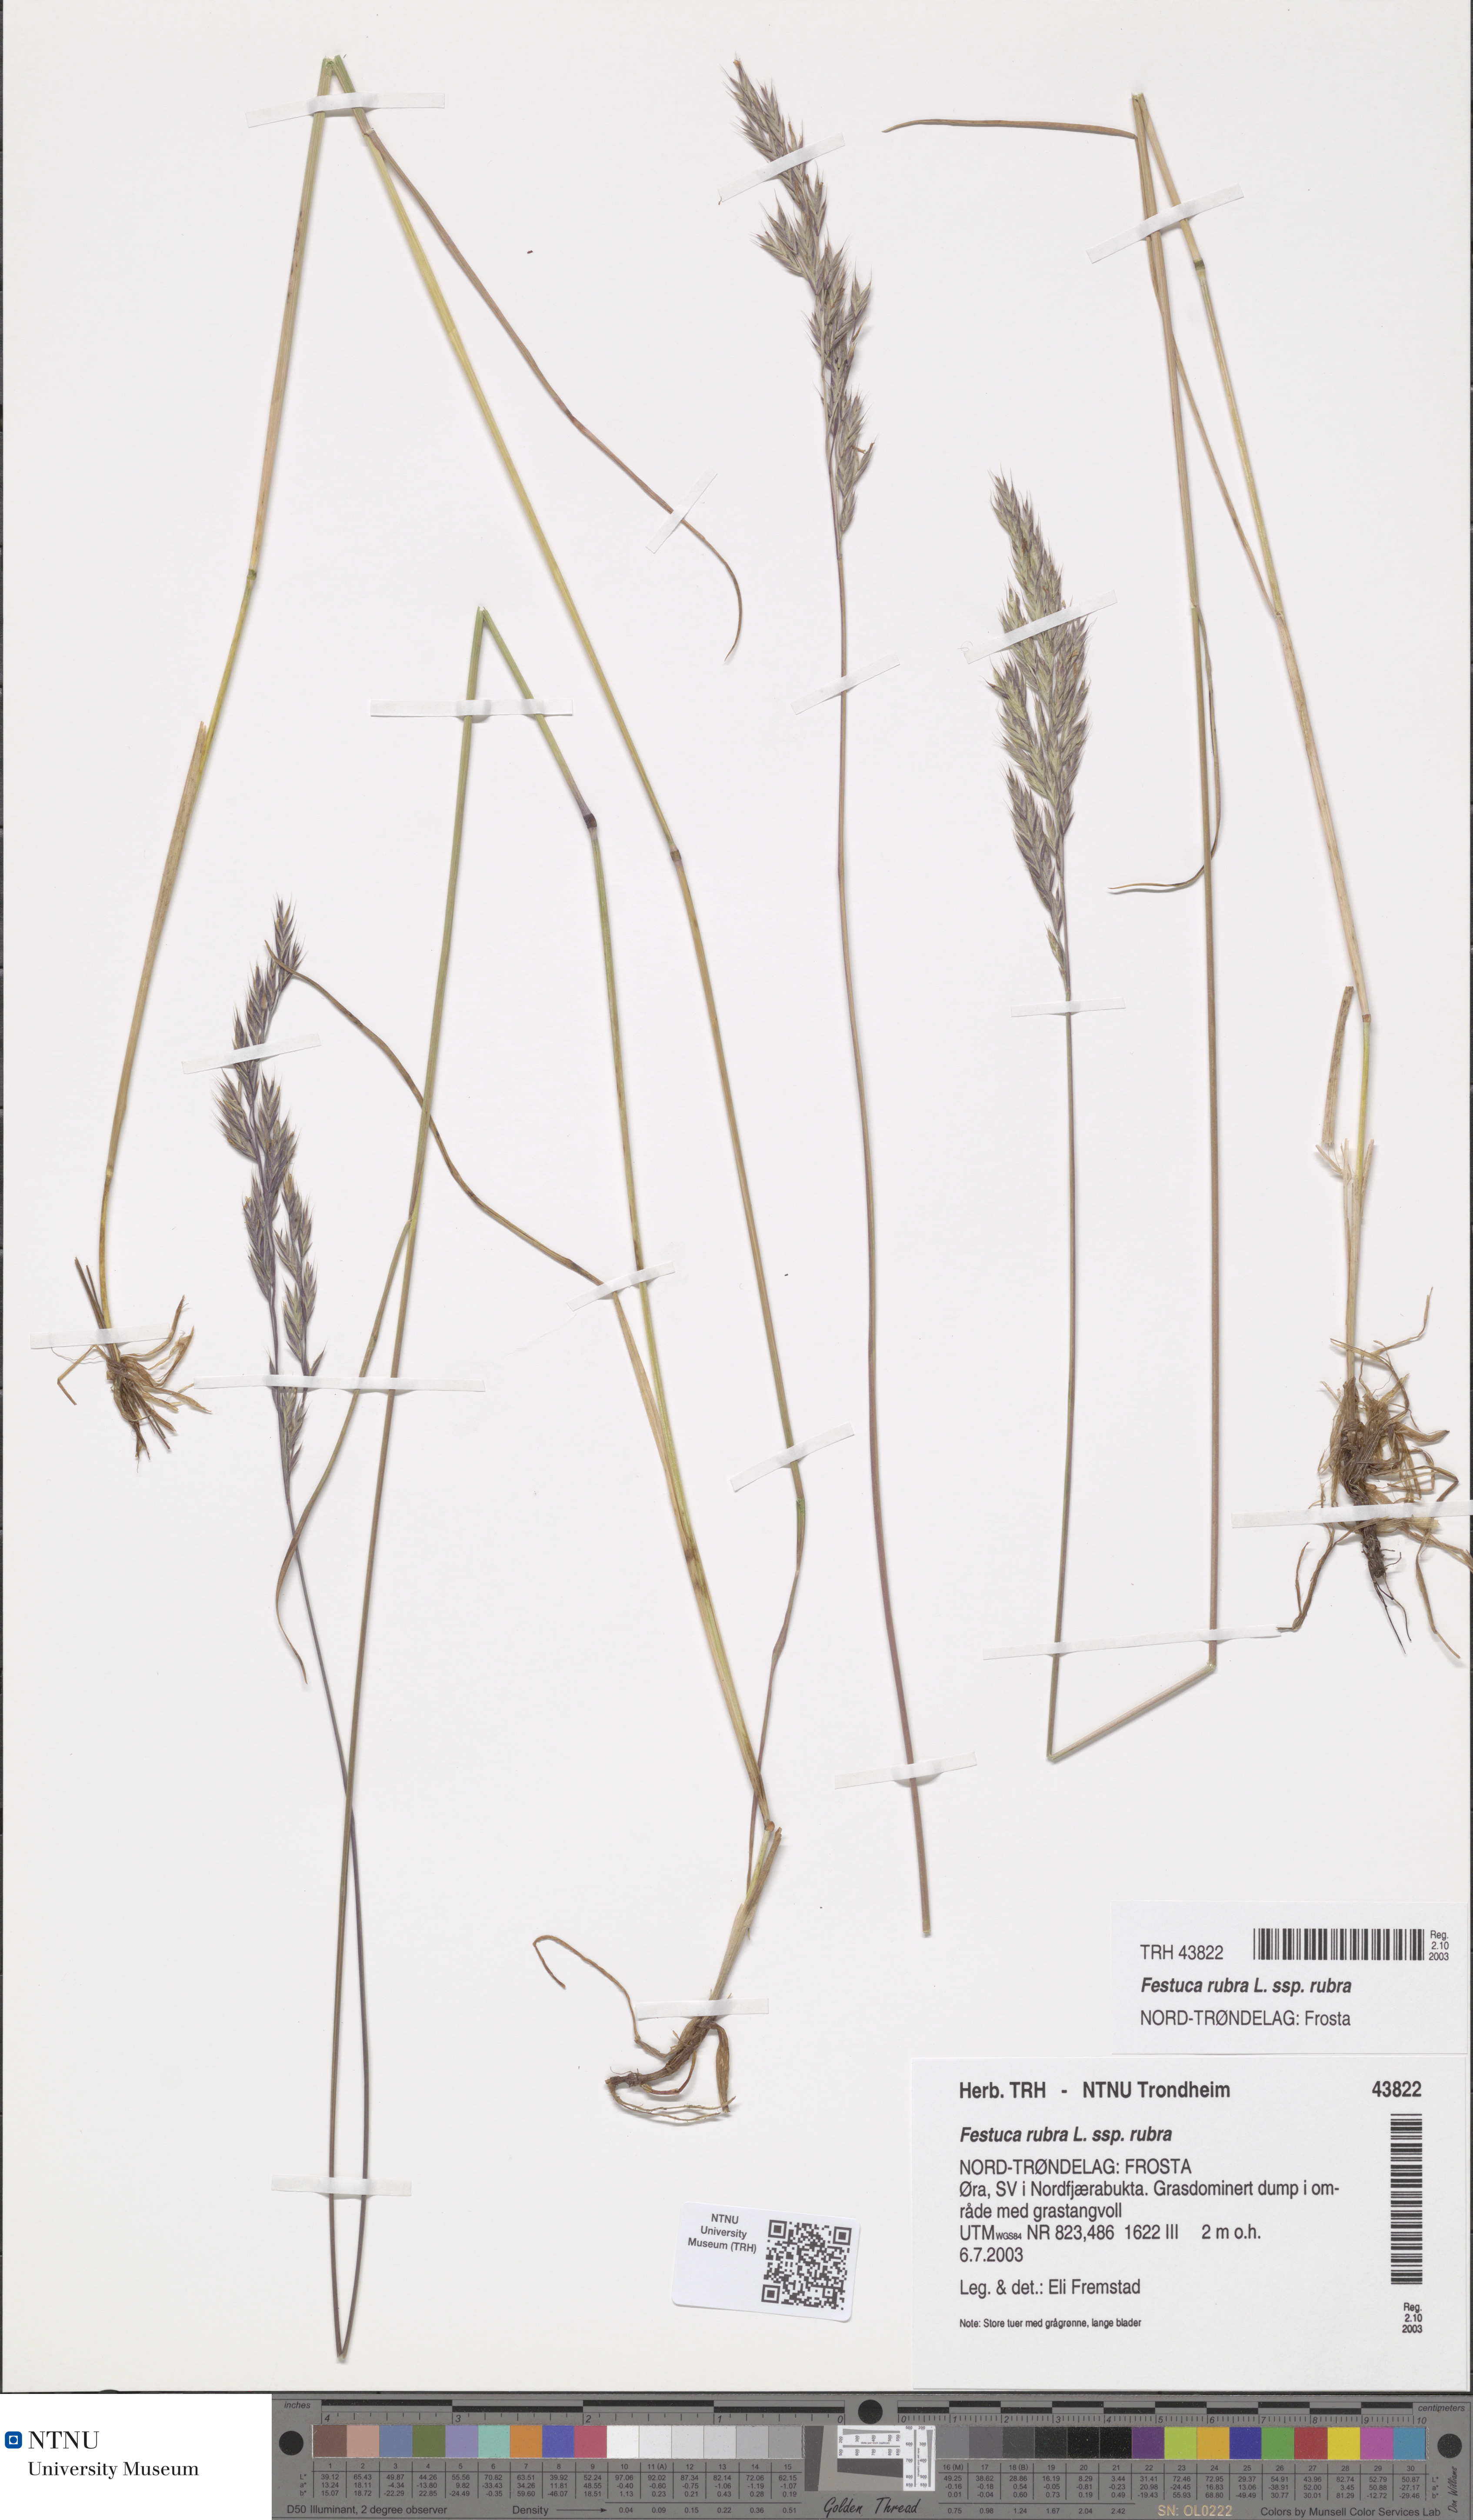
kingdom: Plantae
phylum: Tracheophyta
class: Liliopsida
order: Poales
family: Poaceae
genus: Festuca
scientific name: Festuca rubra
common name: Red fescue
